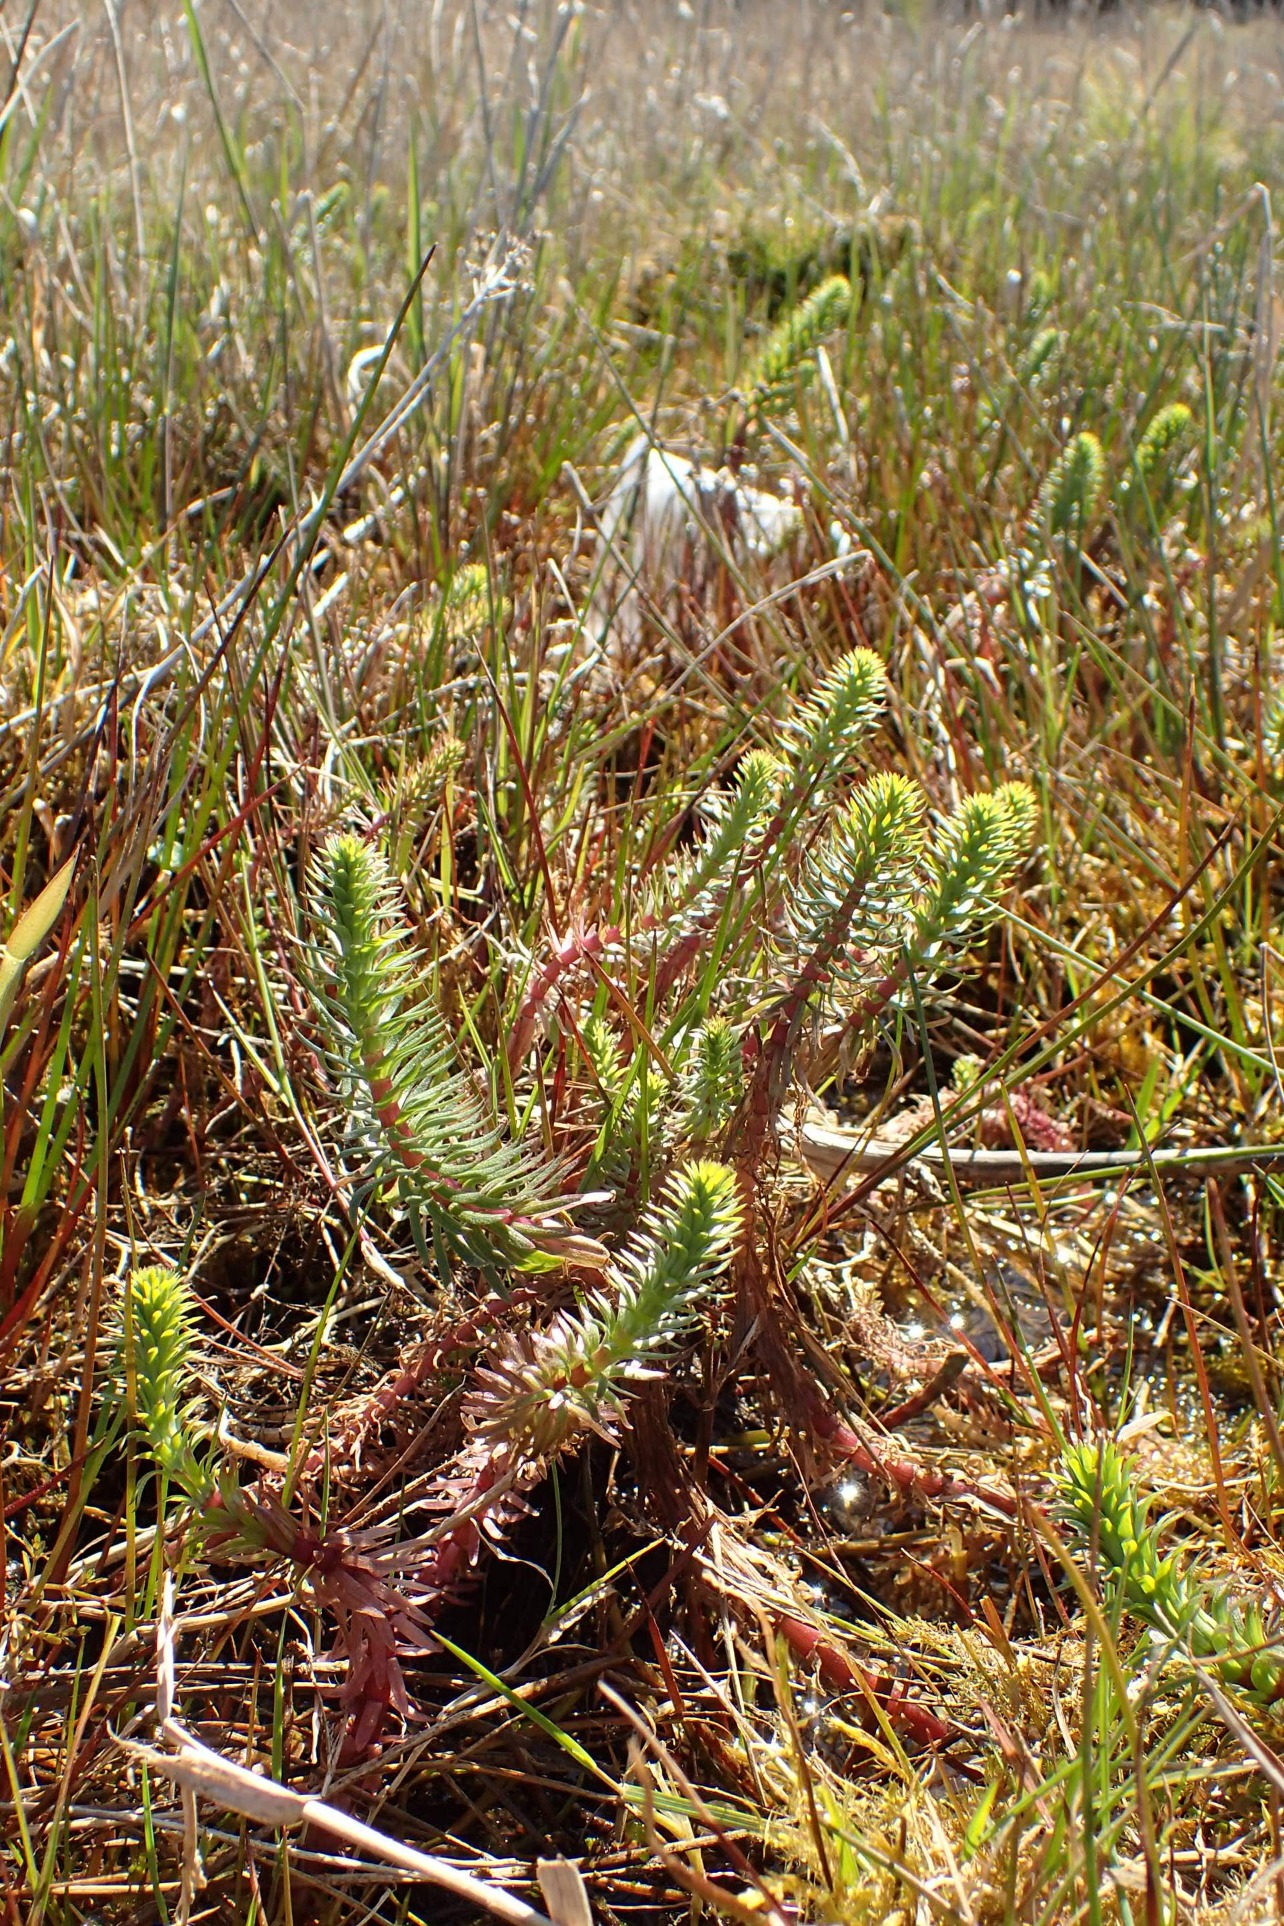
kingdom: Plantae
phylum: Tracheophyta
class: Magnoliopsida
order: Lamiales
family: Plantaginaceae
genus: Hippuris
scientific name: Hippuris vulgaris
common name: Vandspir
